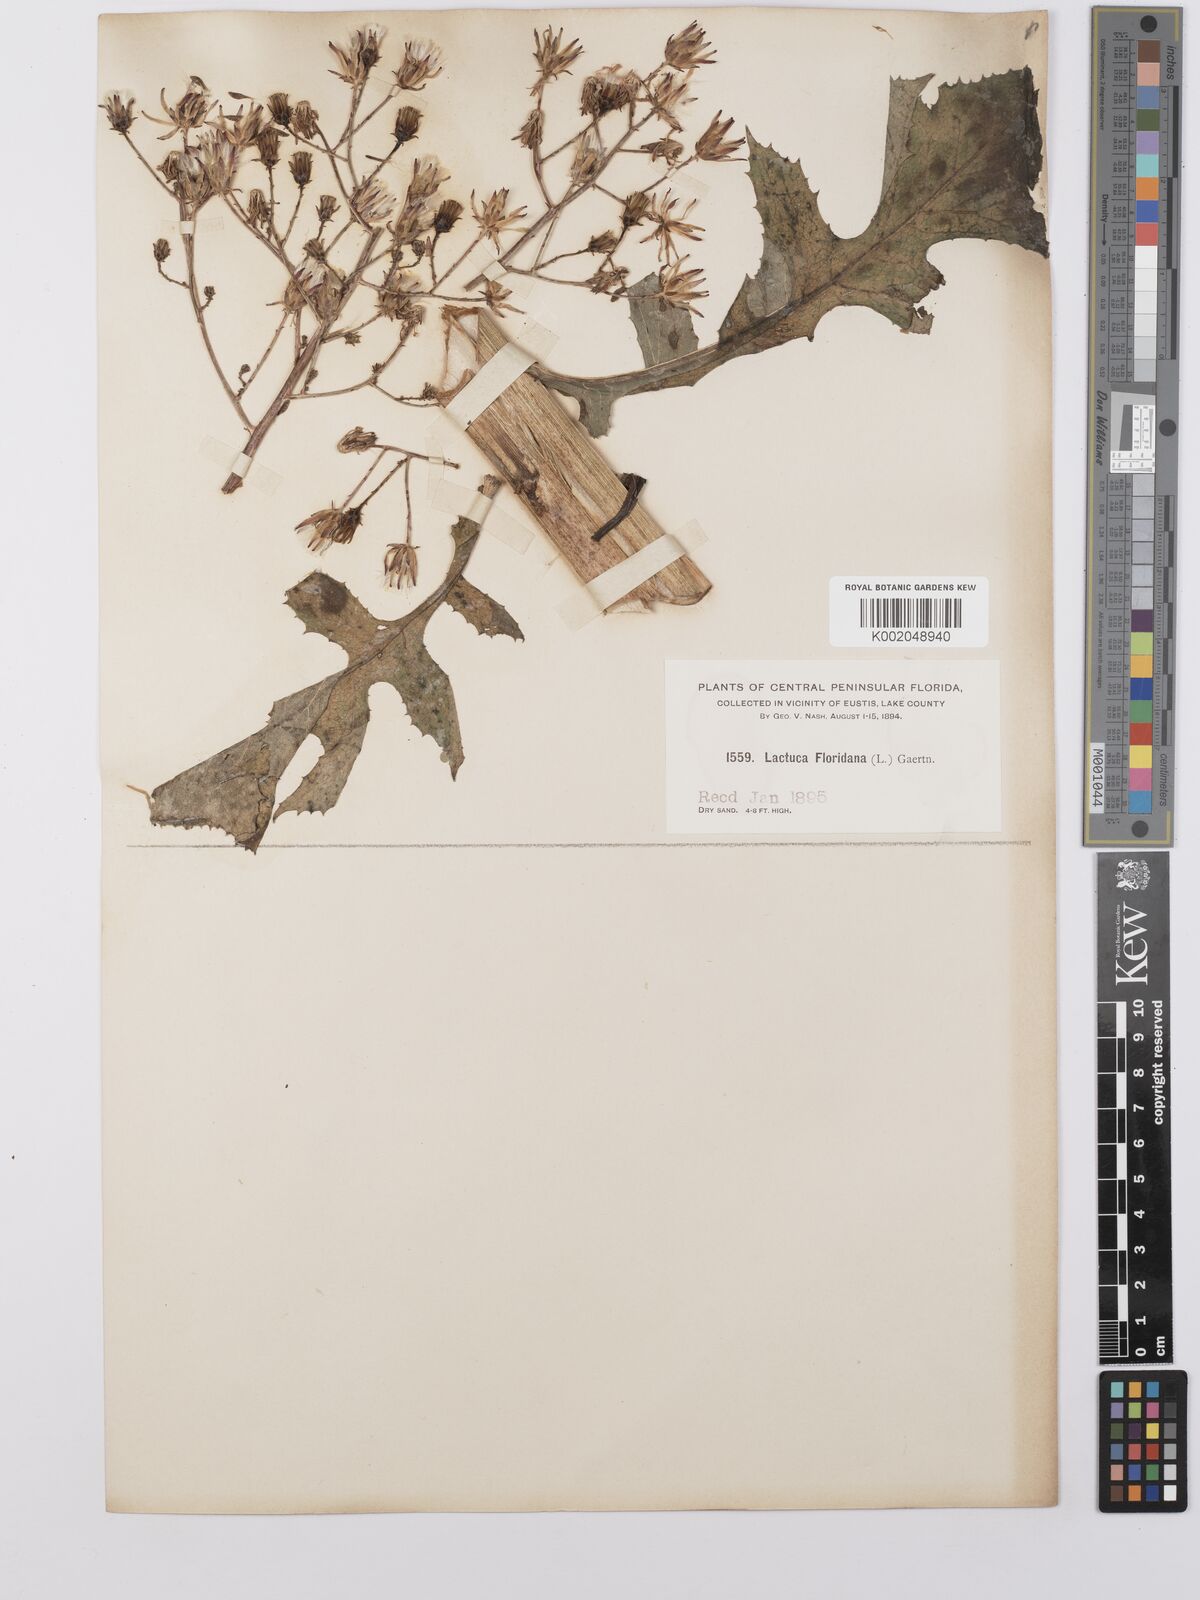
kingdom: Plantae
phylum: Tracheophyta
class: Magnoliopsida
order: Asterales
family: Asteraceae
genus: Lactuca
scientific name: Lactuca floridana
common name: Woodland lettuce
